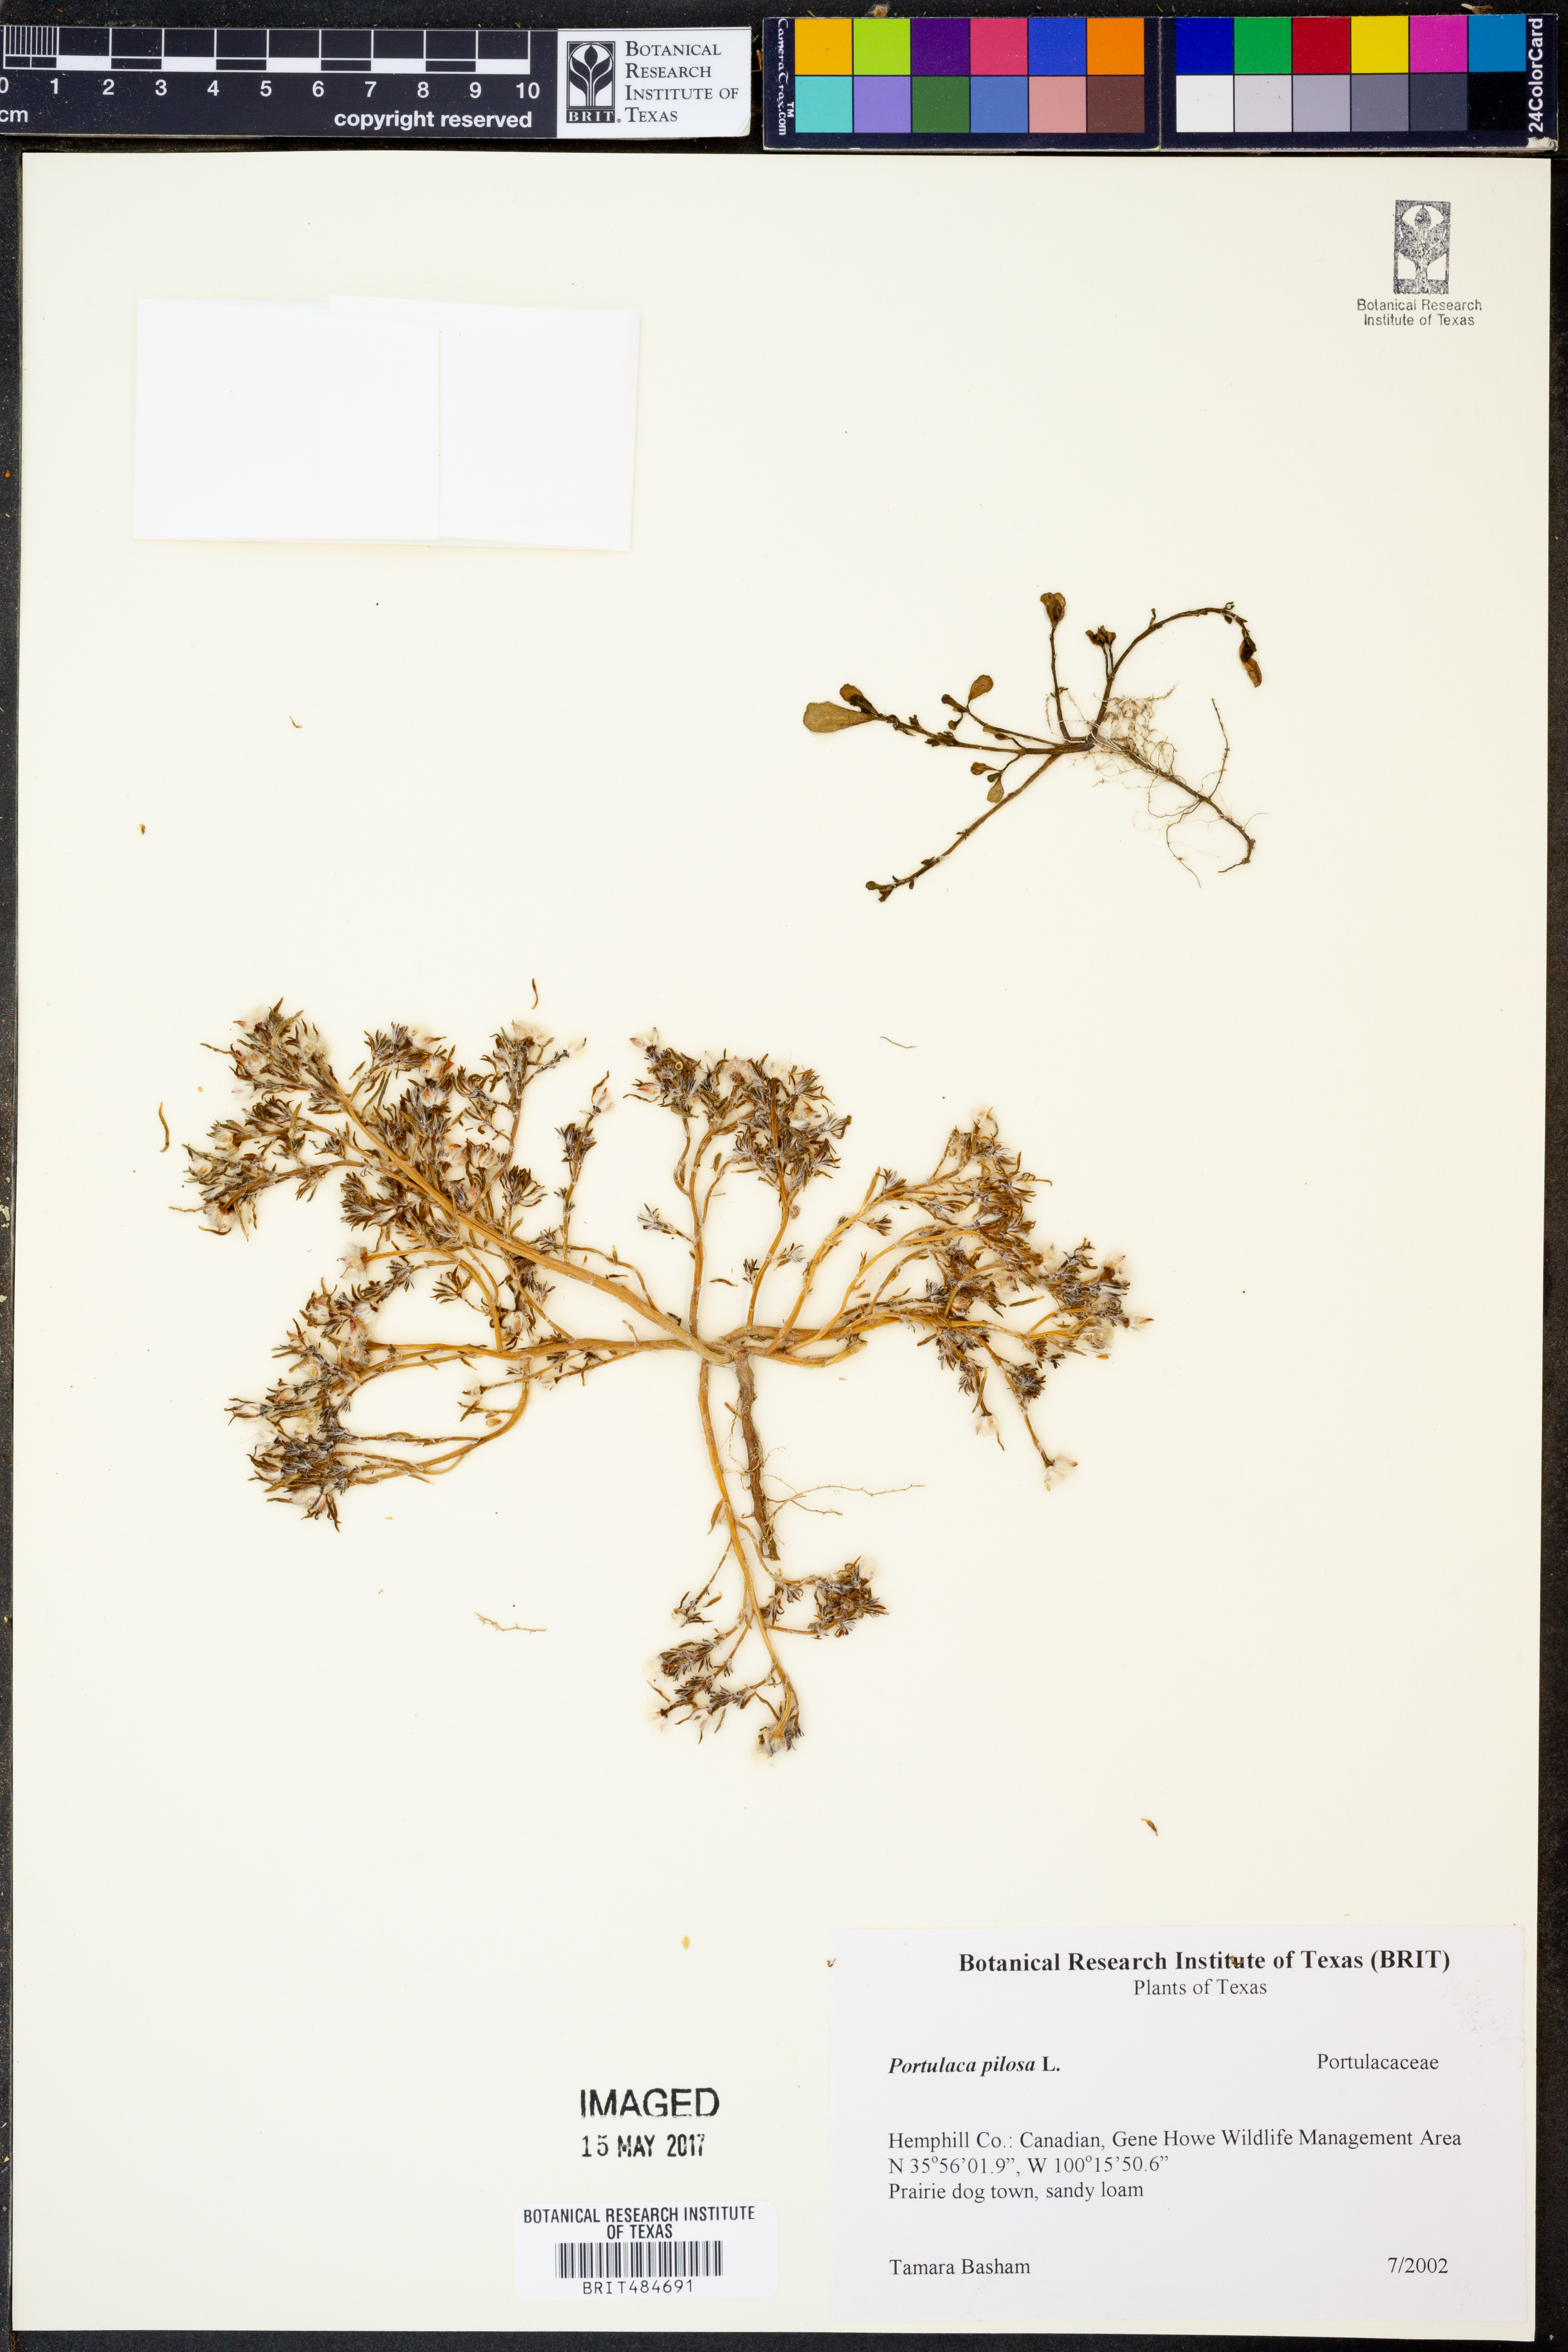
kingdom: Plantae
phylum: Tracheophyta
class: Magnoliopsida
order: Caryophyllales
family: Portulacaceae
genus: Portulaca
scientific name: Portulaca pilosa
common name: Kiss me quick
